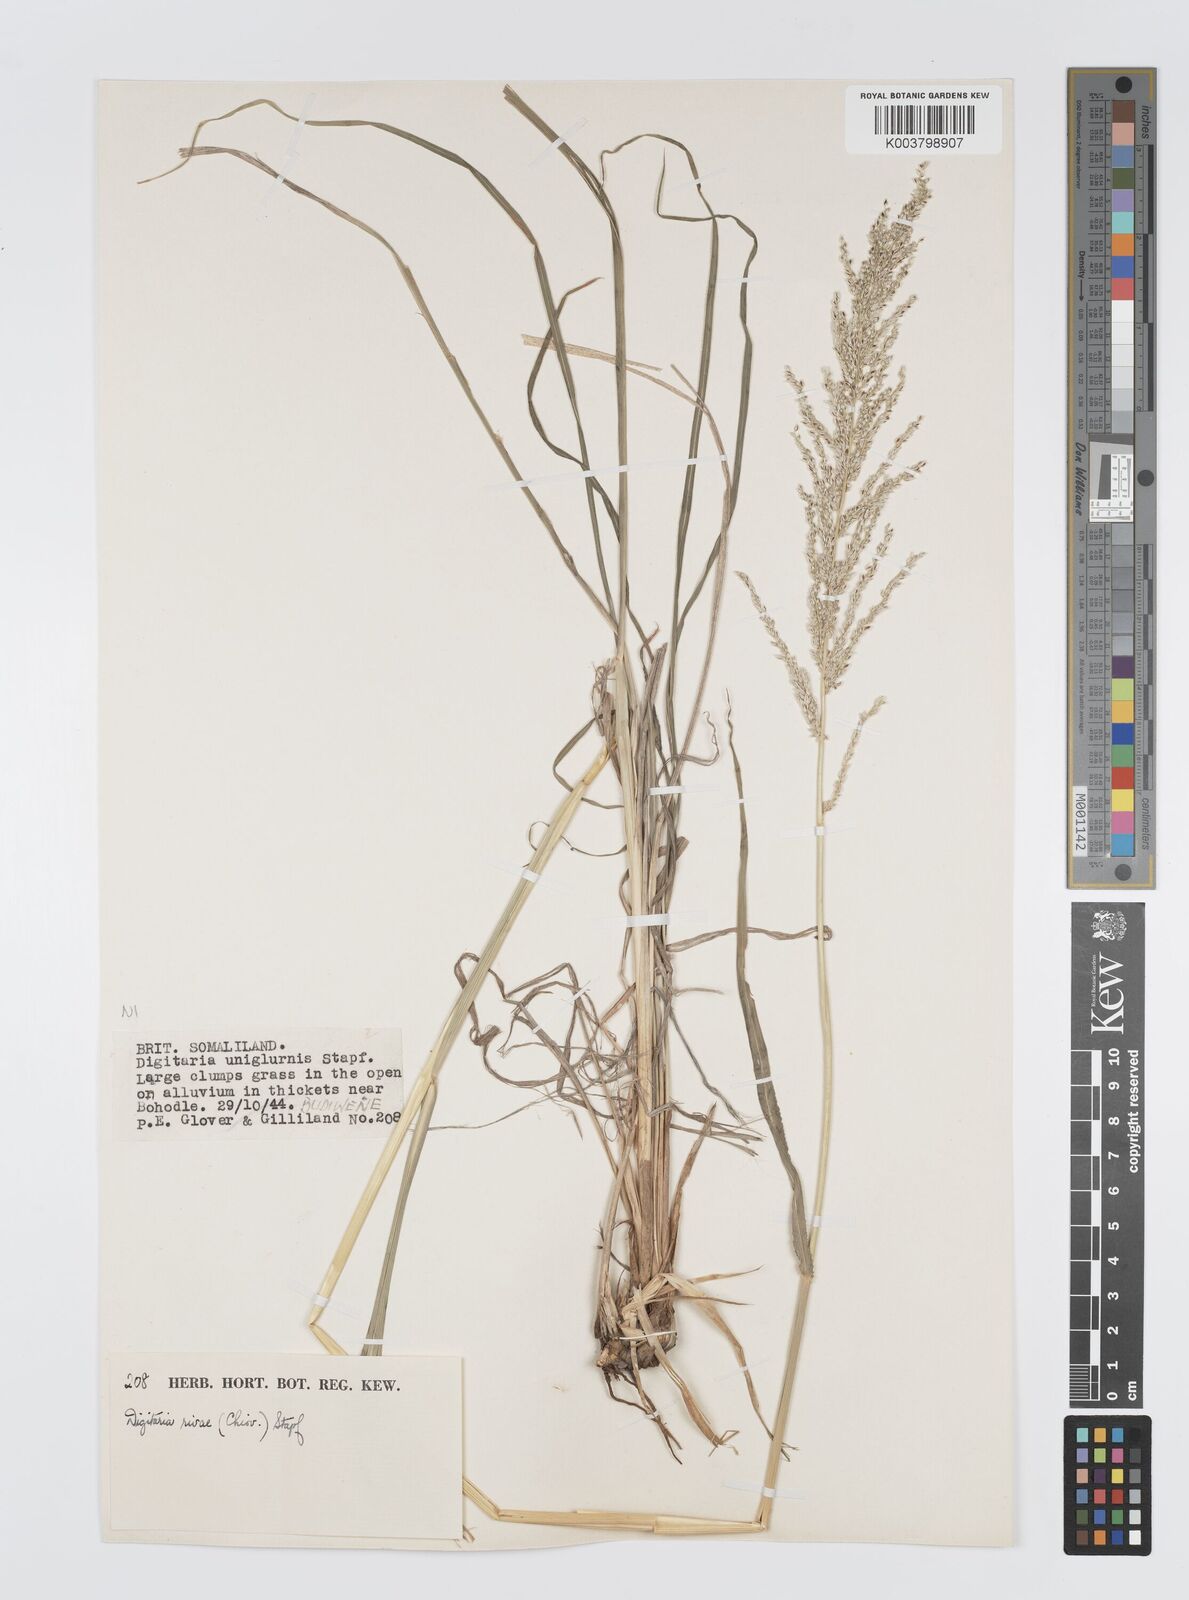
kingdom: Plantae
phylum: Tracheophyta
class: Liliopsida
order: Poales
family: Poaceae
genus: Digitaria
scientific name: Digitaria rivae
